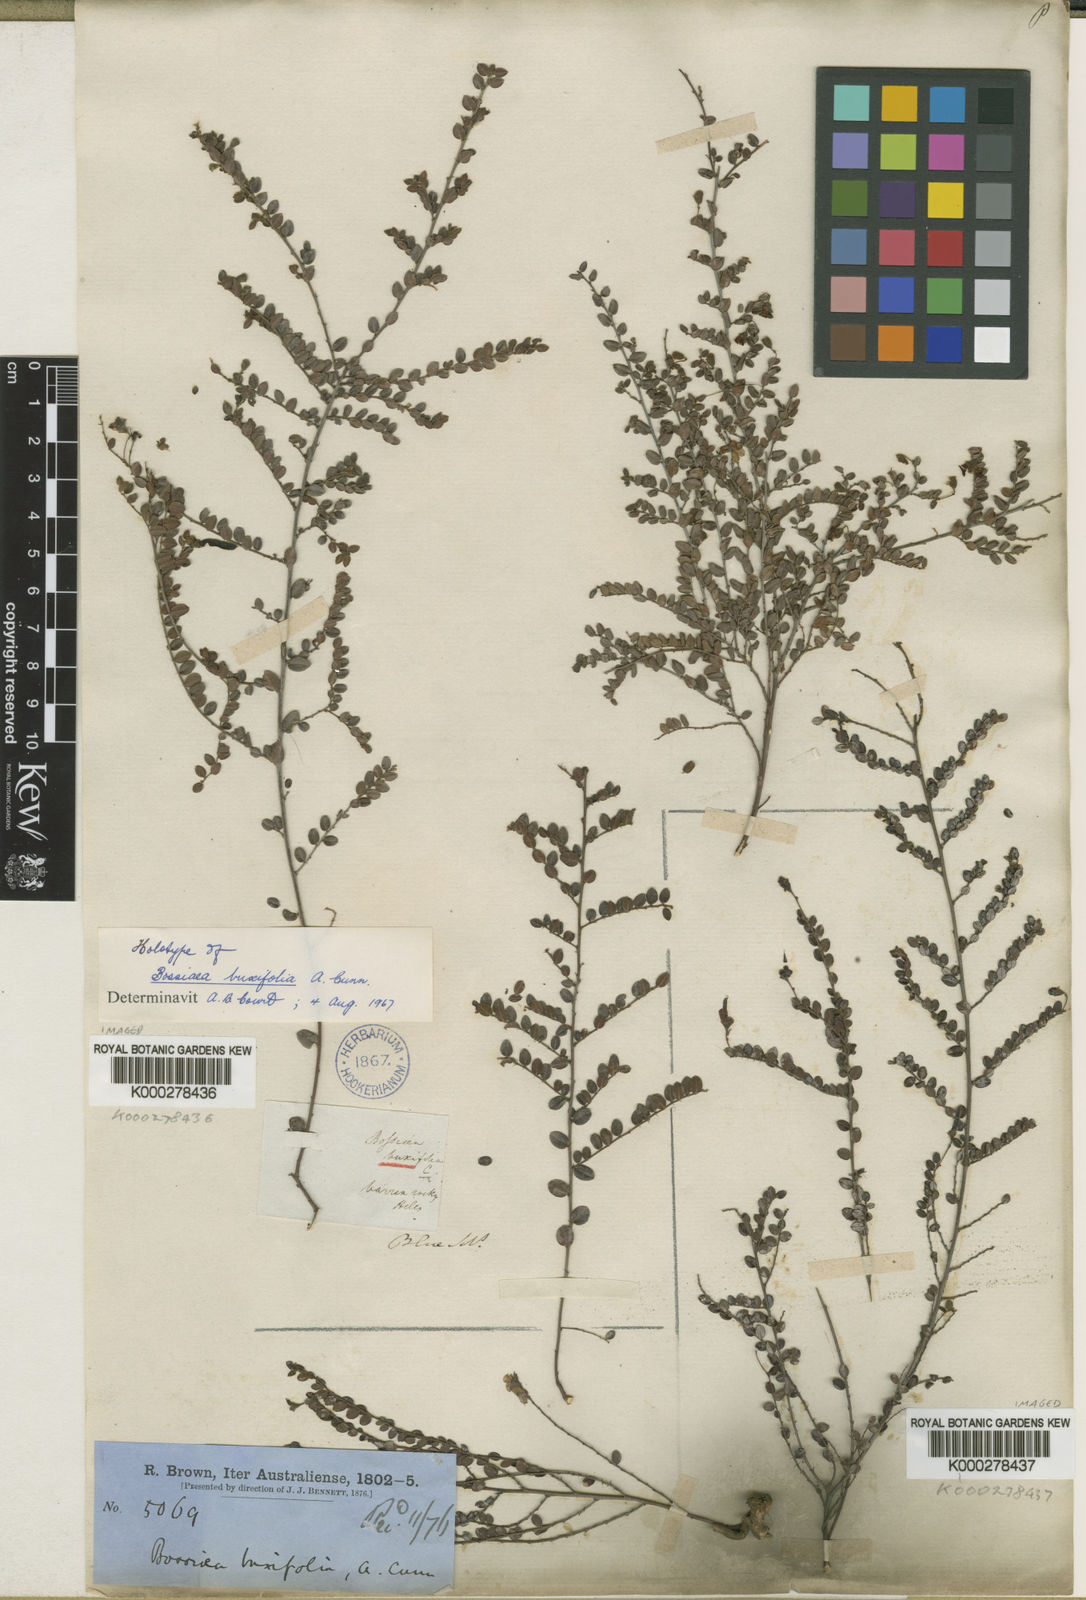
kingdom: Plantae
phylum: Tracheophyta
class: Magnoliopsida
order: Fabales
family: Fabaceae
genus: Bossiaea
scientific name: Bossiaea buxifolia
